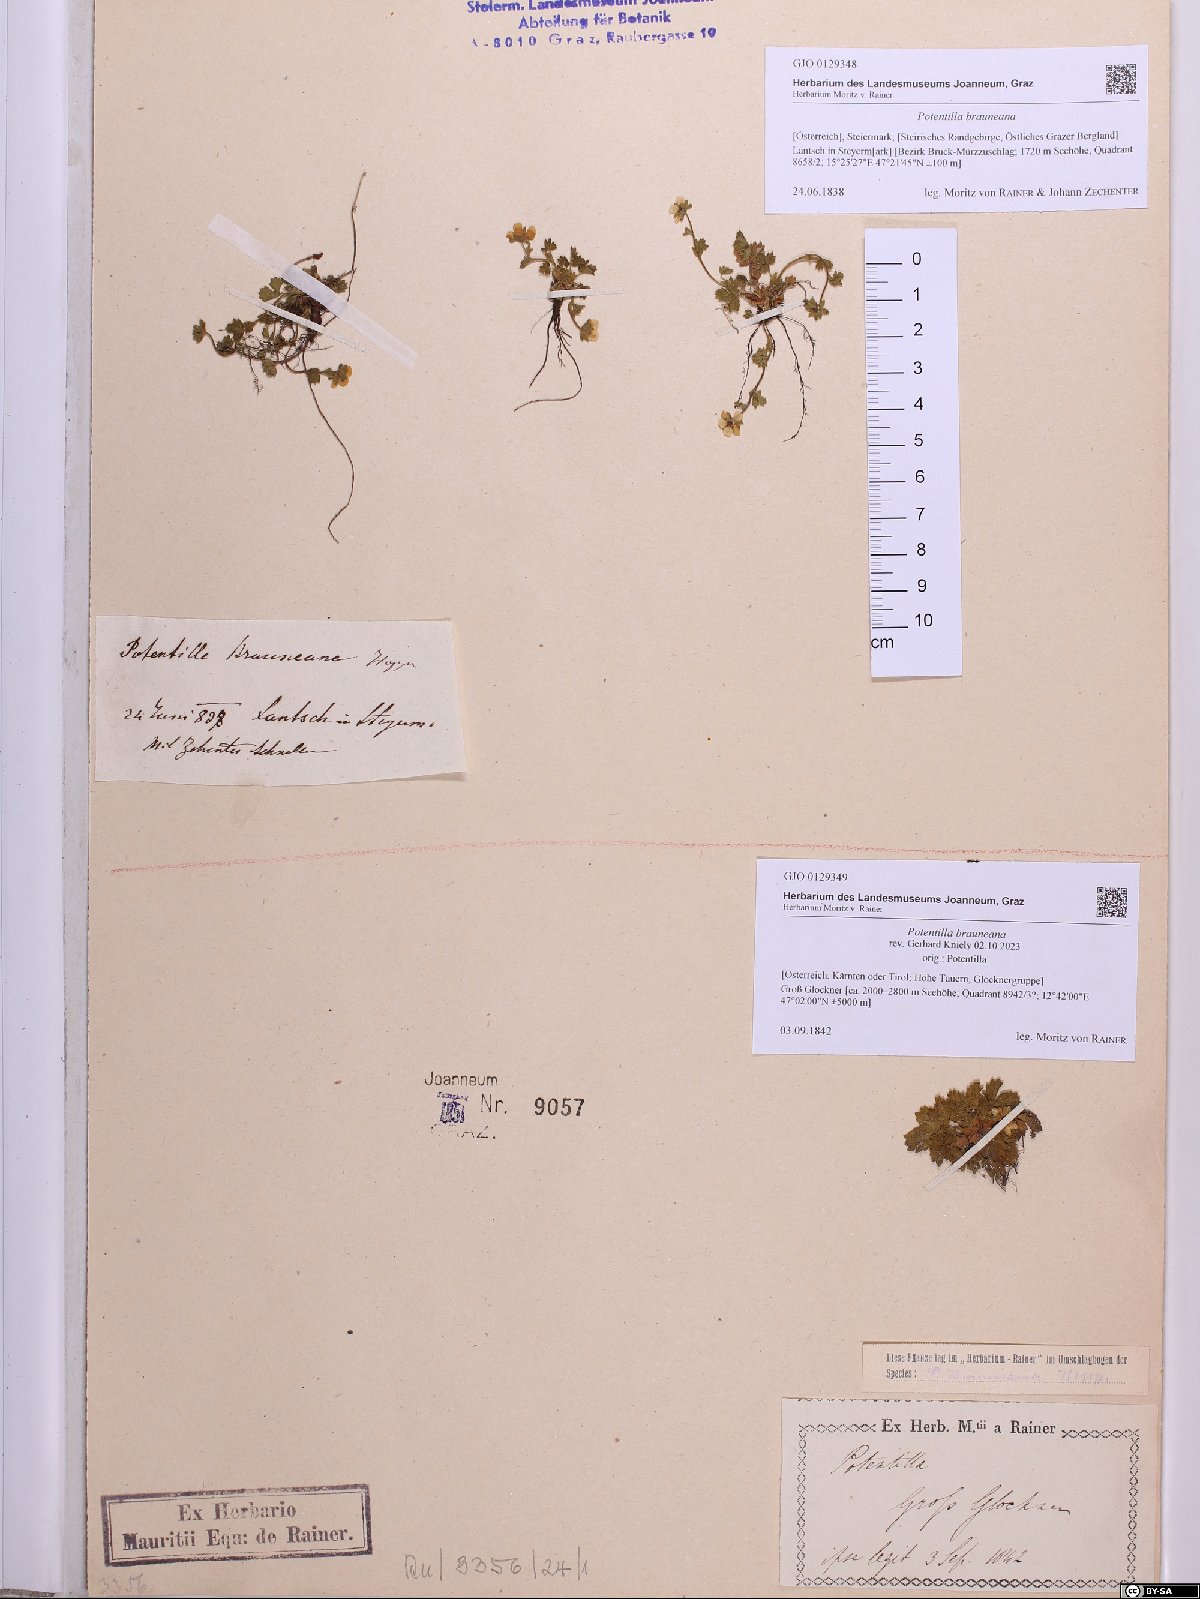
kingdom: Plantae
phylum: Tracheophyta
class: Magnoliopsida
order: Rosales
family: Rosaceae
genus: Potentilla
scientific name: Potentilla brauneana
